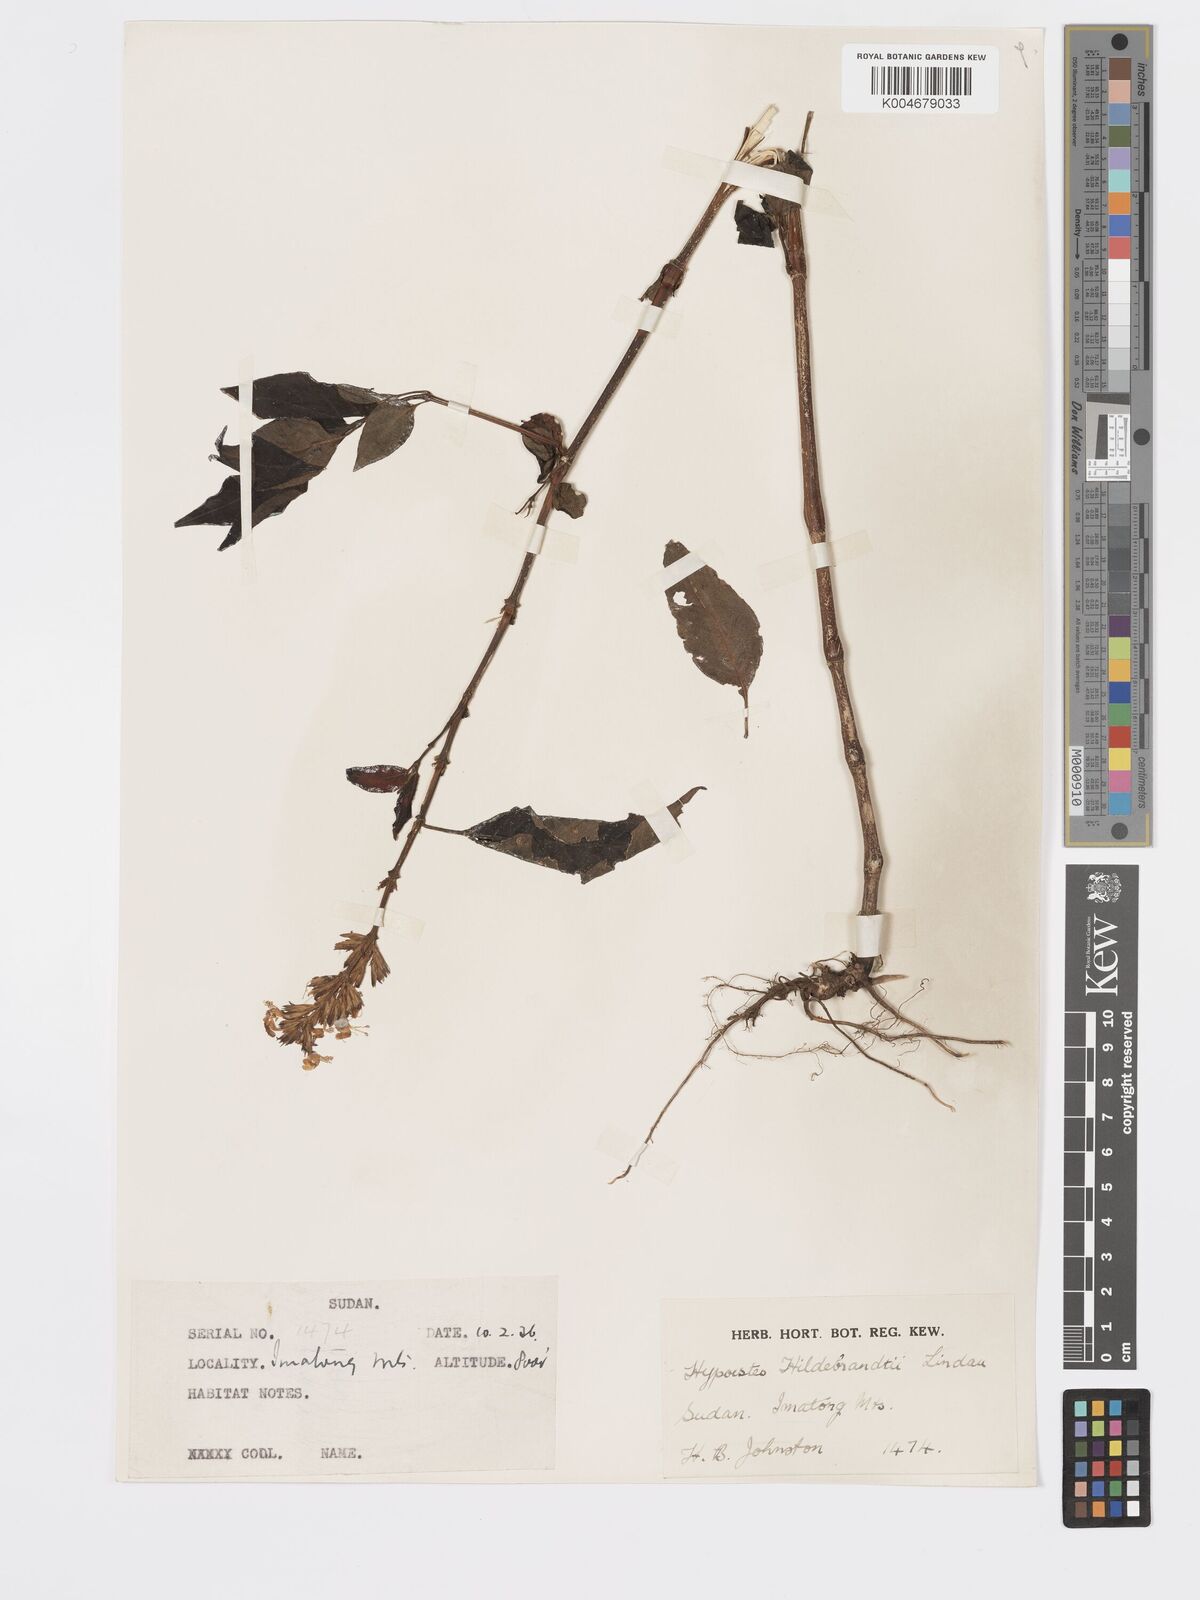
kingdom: Plantae
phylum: Tracheophyta
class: Magnoliopsida
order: Lamiales
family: Acanthaceae
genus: Hypoestes
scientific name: Hypoestes forskaolii
